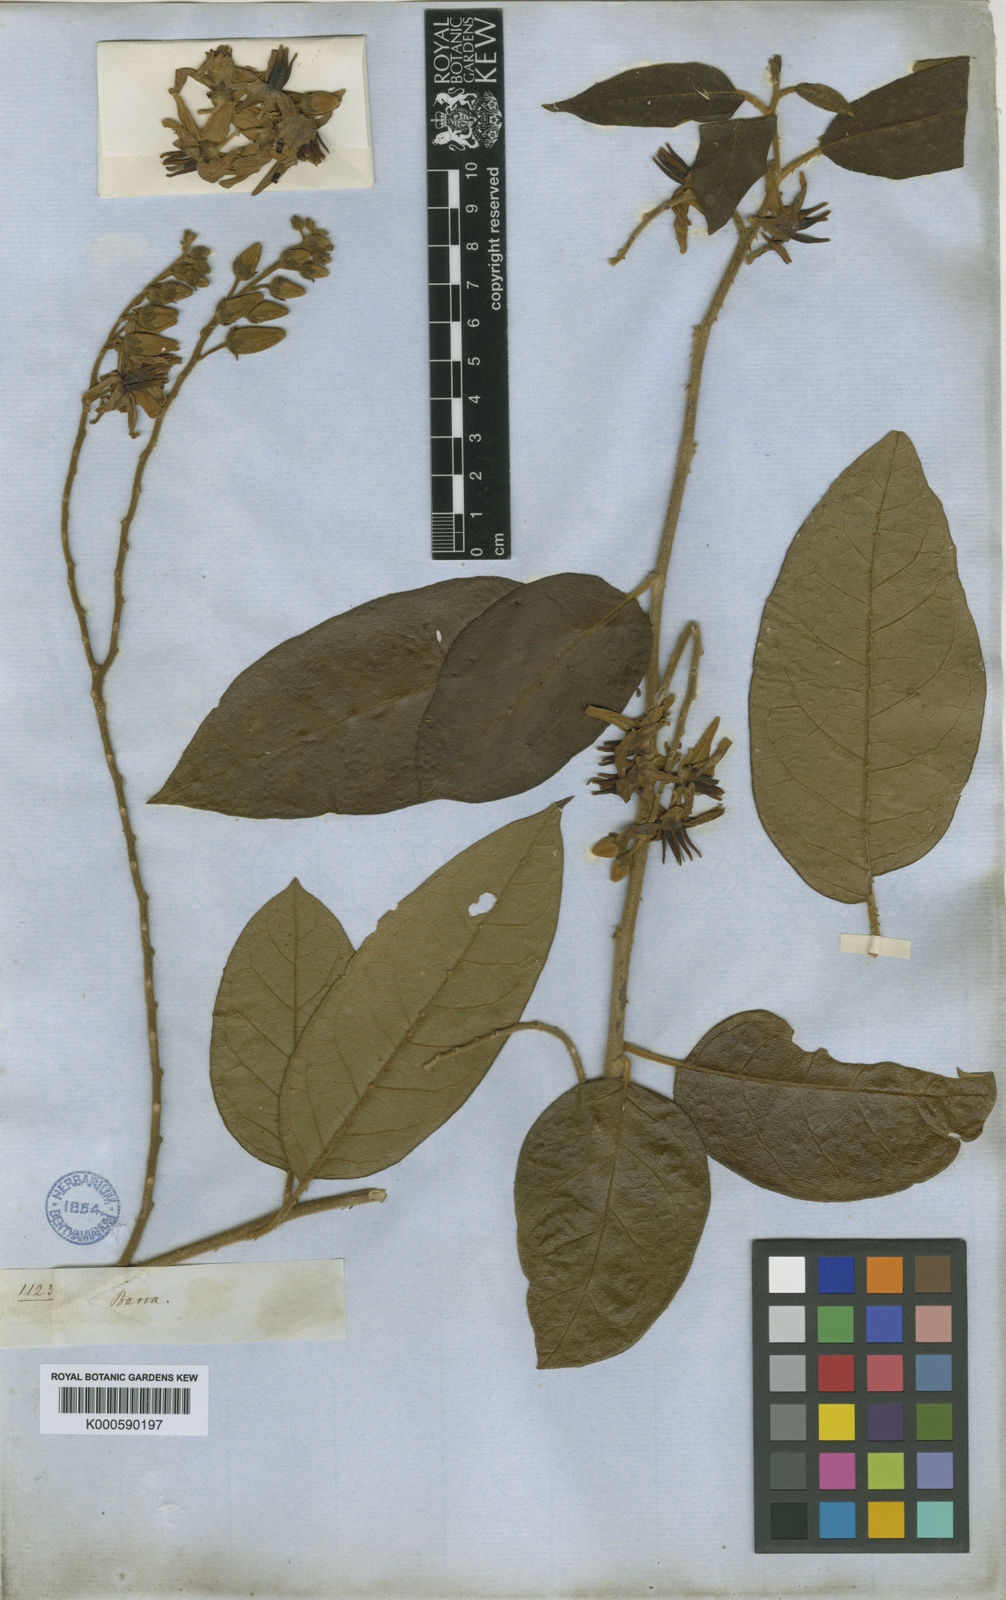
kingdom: Plantae
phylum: Tracheophyta
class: Magnoliopsida
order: Solanales
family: Solanaceae
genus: Solanum
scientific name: Solanum
